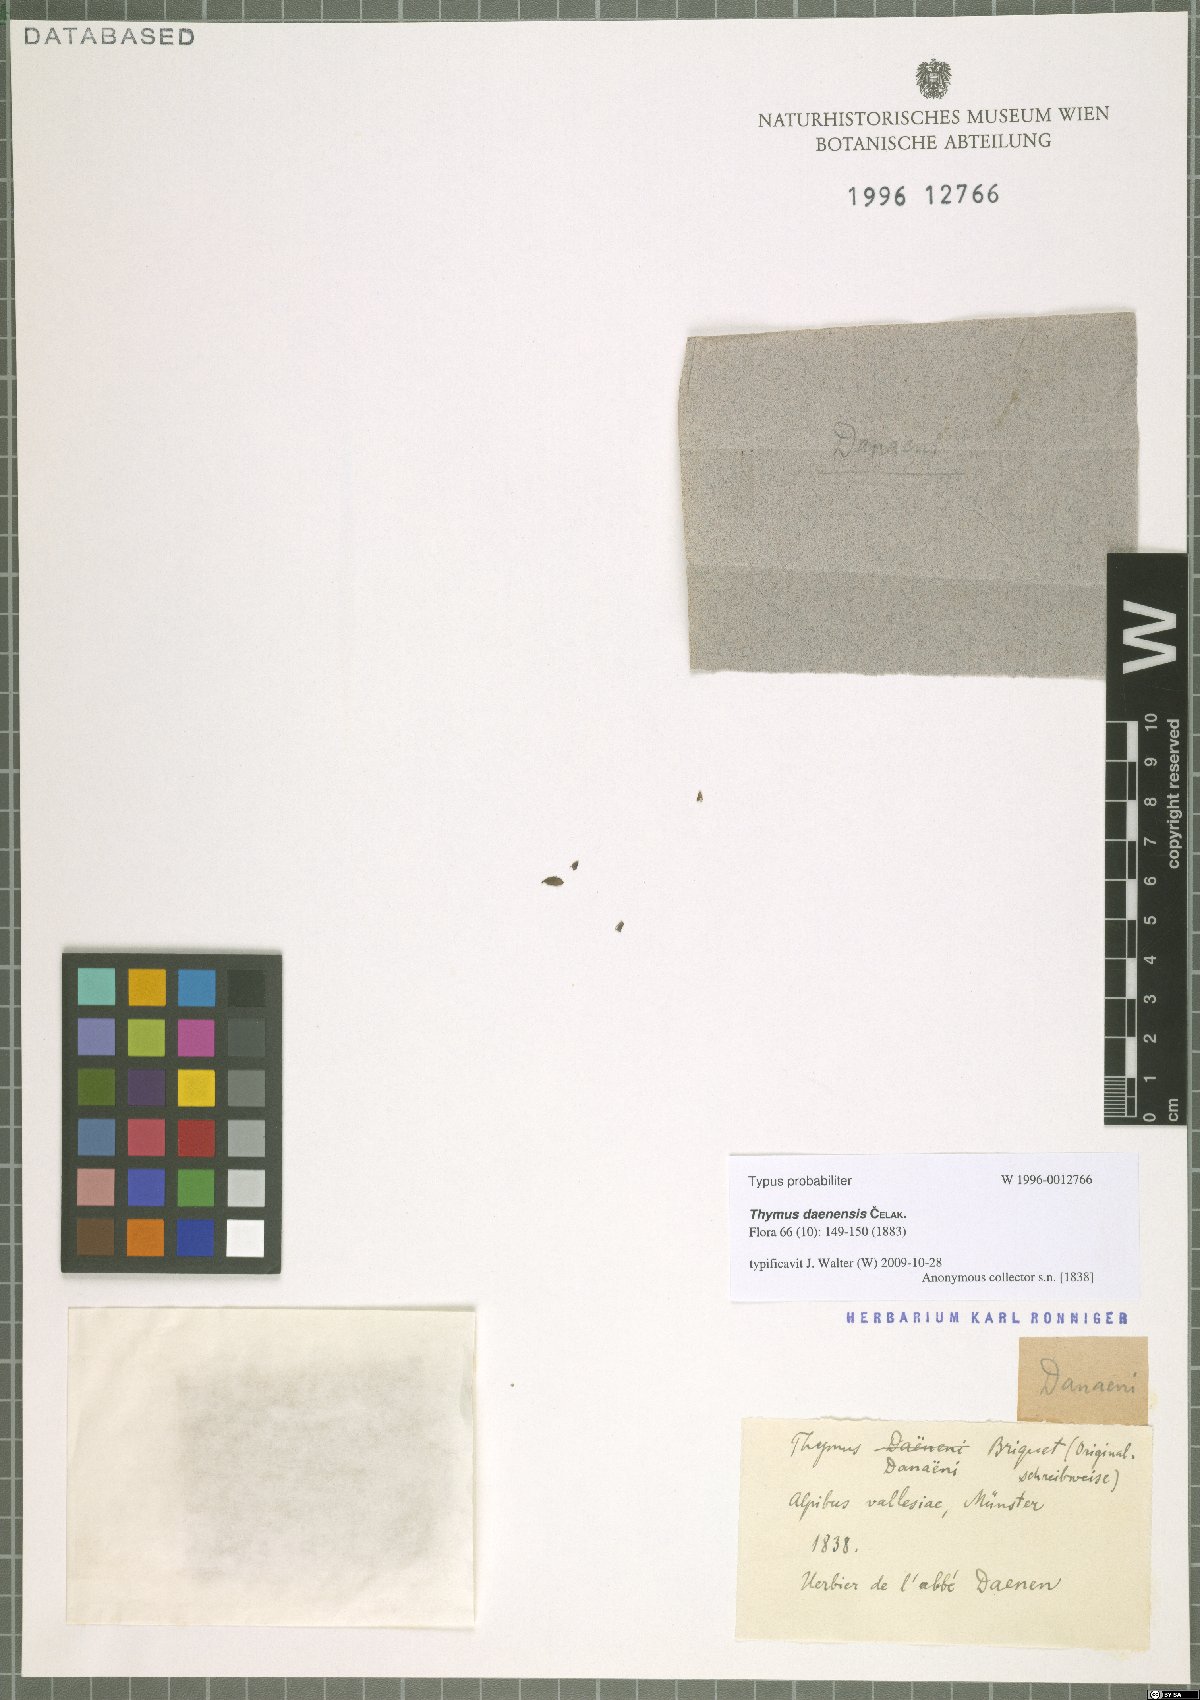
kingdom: Plantae
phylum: Tracheophyta
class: Magnoliopsida
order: Lamiales
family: Lamiaceae
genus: Thymus
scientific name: Thymus daenensis
